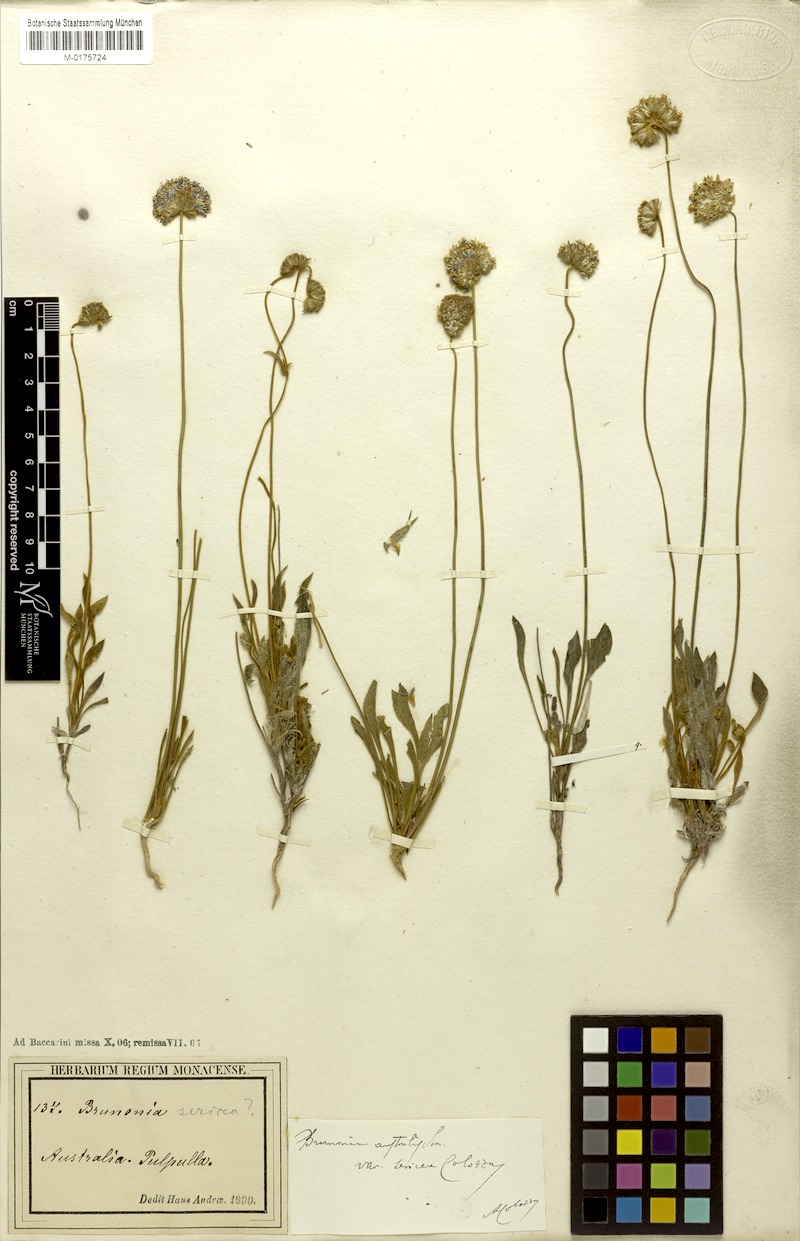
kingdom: Plantae
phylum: Tracheophyta
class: Magnoliopsida
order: Asterales
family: Goodeniaceae
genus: Brunonia
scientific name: Brunonia australis
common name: Blue pincushion
